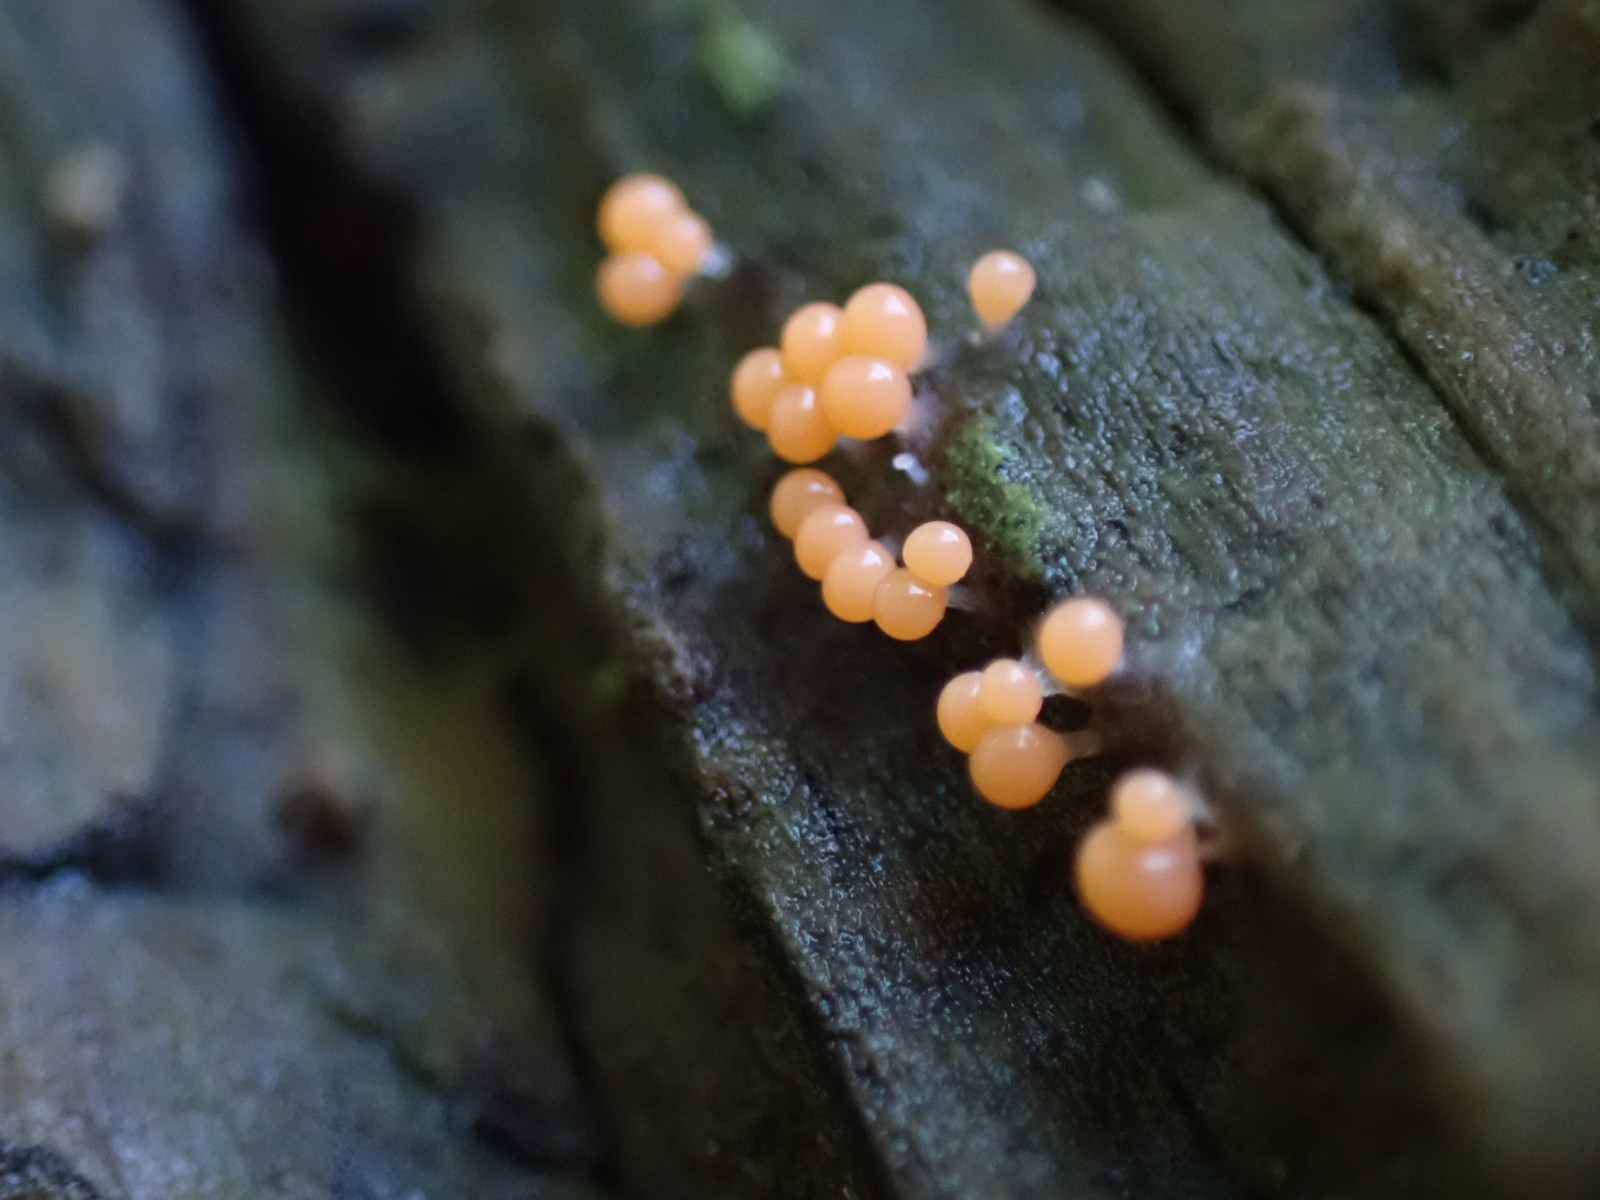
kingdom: Protozoa
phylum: Mycetozoa
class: Myxomycetes
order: Trichiales
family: Trichiaceae
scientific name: Trichiaceae
